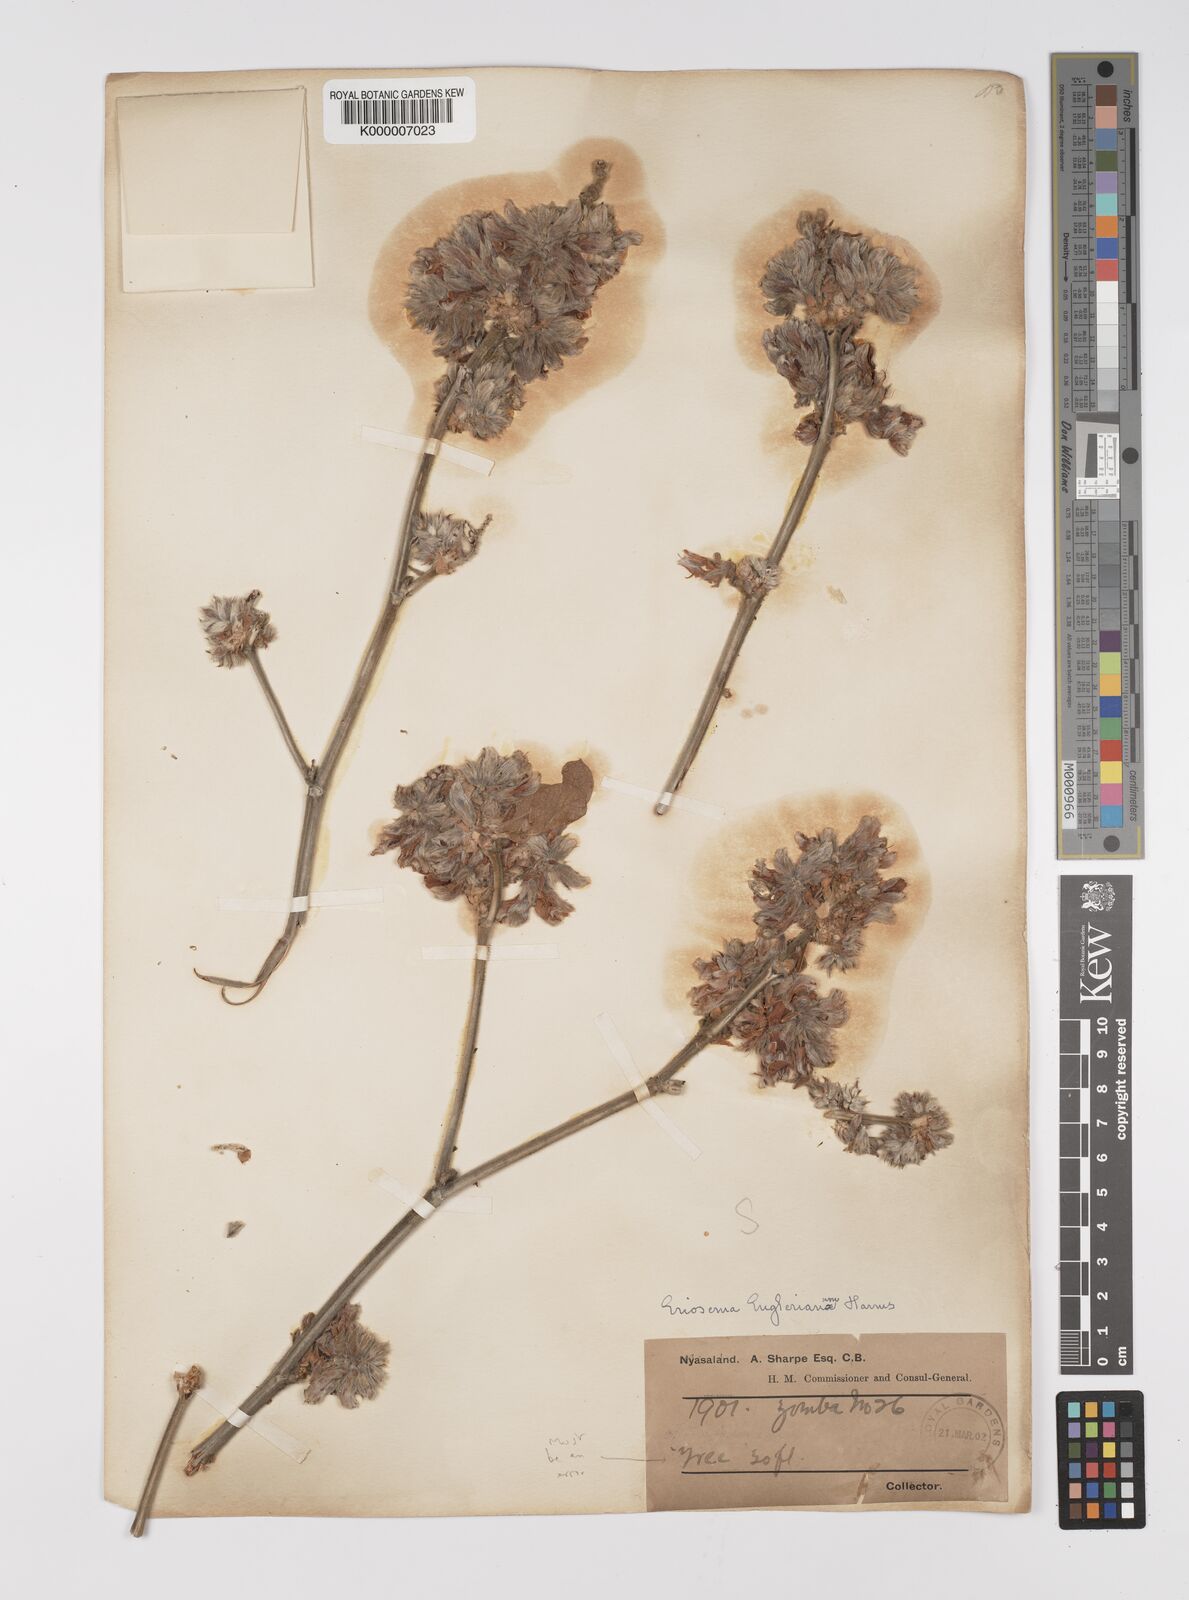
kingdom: Plantae
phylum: Tracheophyta
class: Magnoliopsida
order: Fabales
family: Fabaceae
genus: Eriosema
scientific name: Eriosema englerianum
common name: Blue bush
